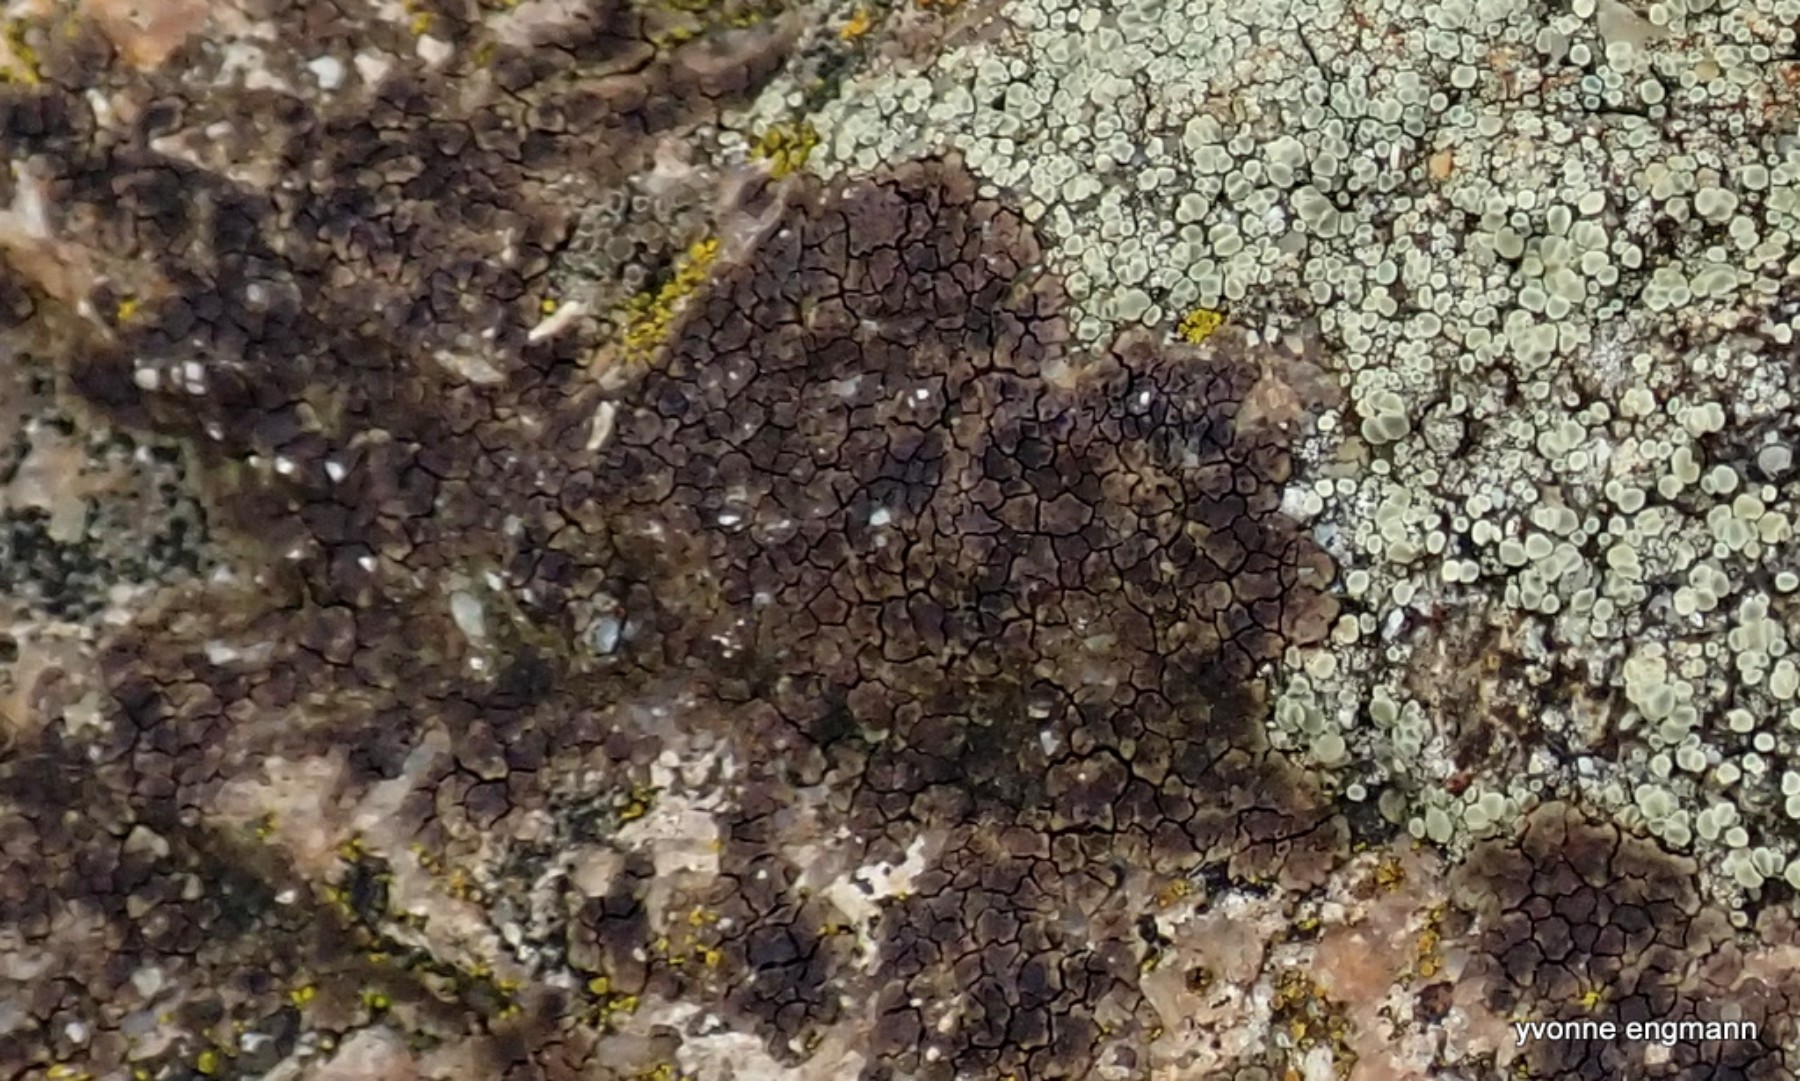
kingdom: Fungi
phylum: Ascomycota
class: Lecanoromycetes
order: Acarosporales
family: Acarosporaceae
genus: Acarospora
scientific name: Acarospora fuscata
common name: brun småsporelav
